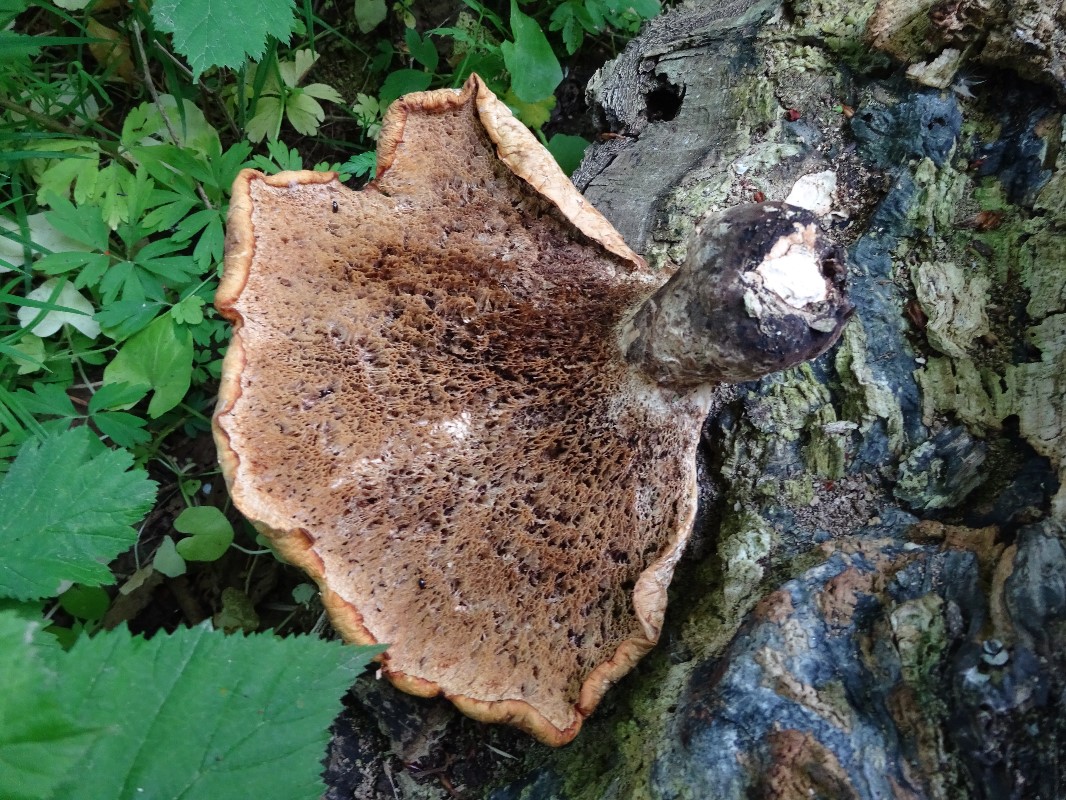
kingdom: Fungi
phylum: Basidiomycota
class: Agaricomycetes
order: Polyporales
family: Polyporaceae
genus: Cerioporus
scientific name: Cerioporus squamosus
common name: skællet stilkporesvamp
